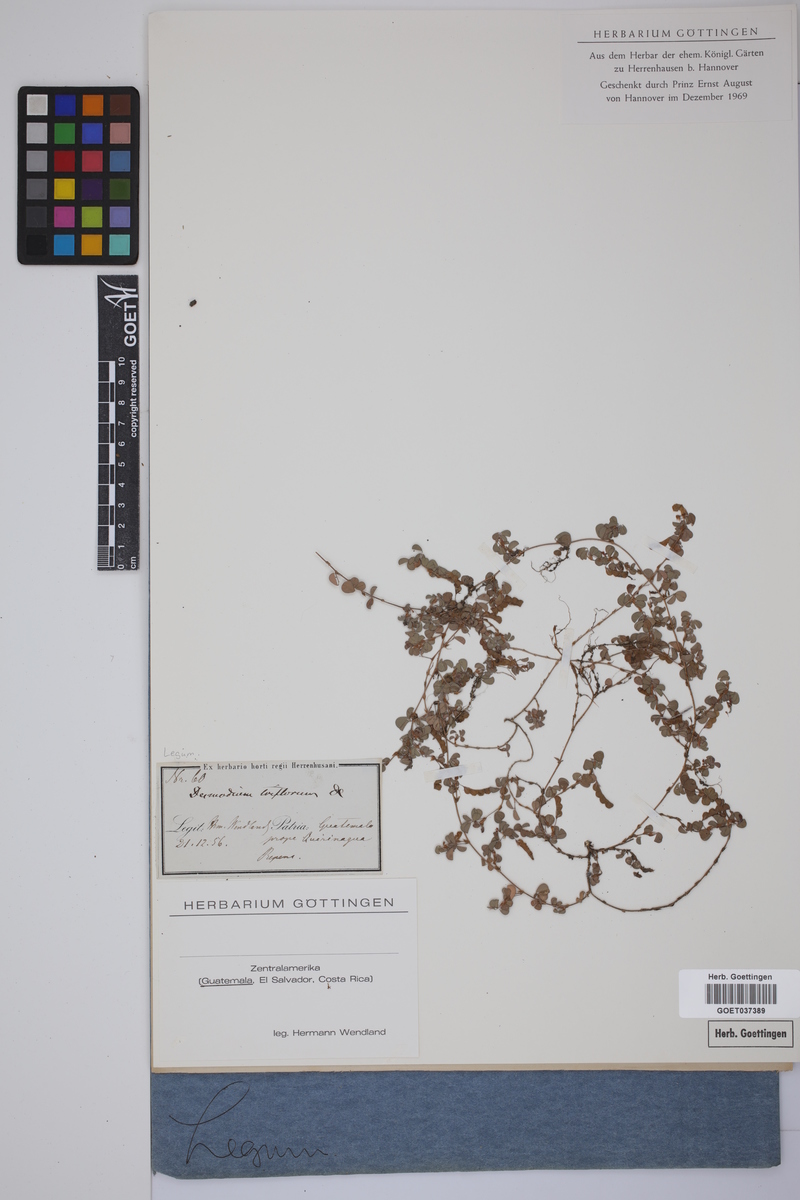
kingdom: Plantae
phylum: Tracheophyta
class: Magnoliopsida
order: Fabales
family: Fabaceae
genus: Grona
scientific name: Grona triflora
